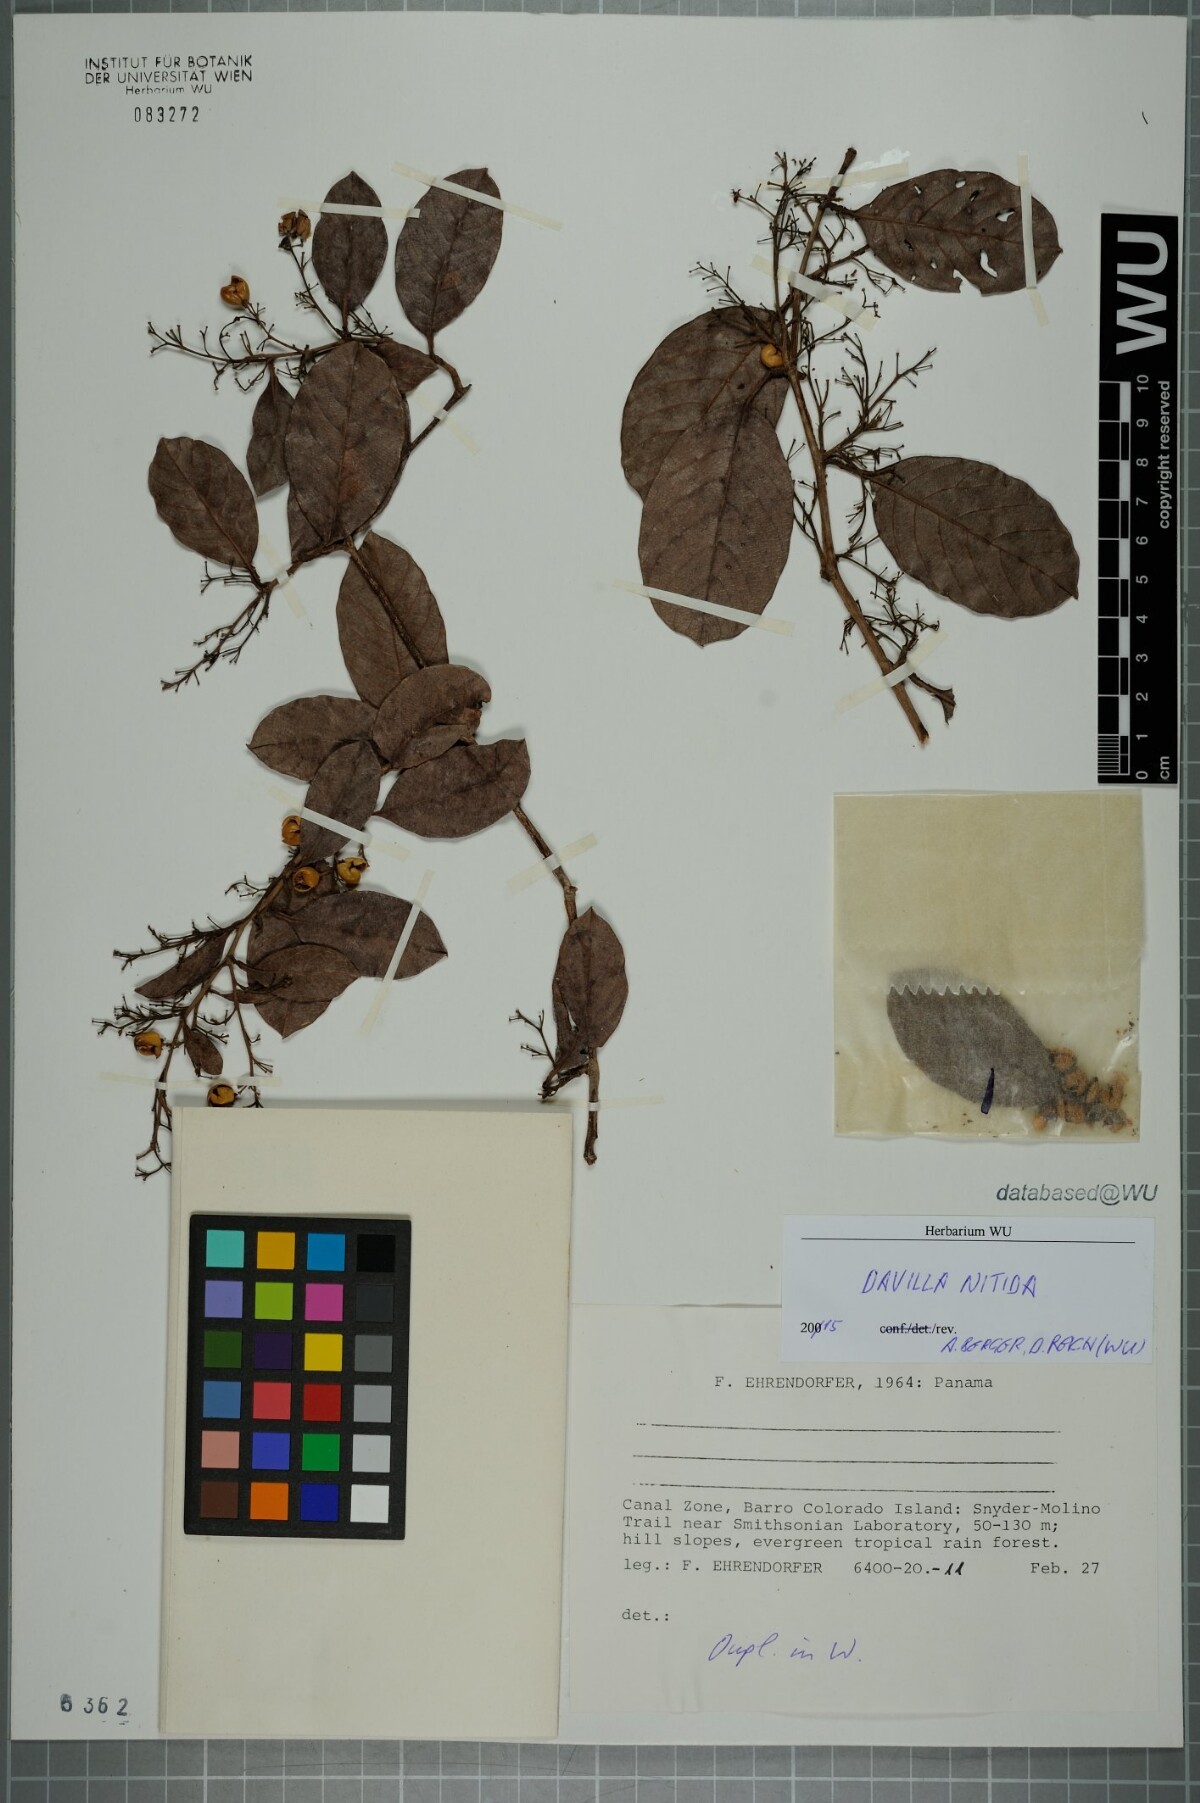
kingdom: Plantae
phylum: Tracheophyta
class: Magnoliopsida
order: Dilleniales
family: Dilleniaceae
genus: Davilla
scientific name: Davilla nitida
